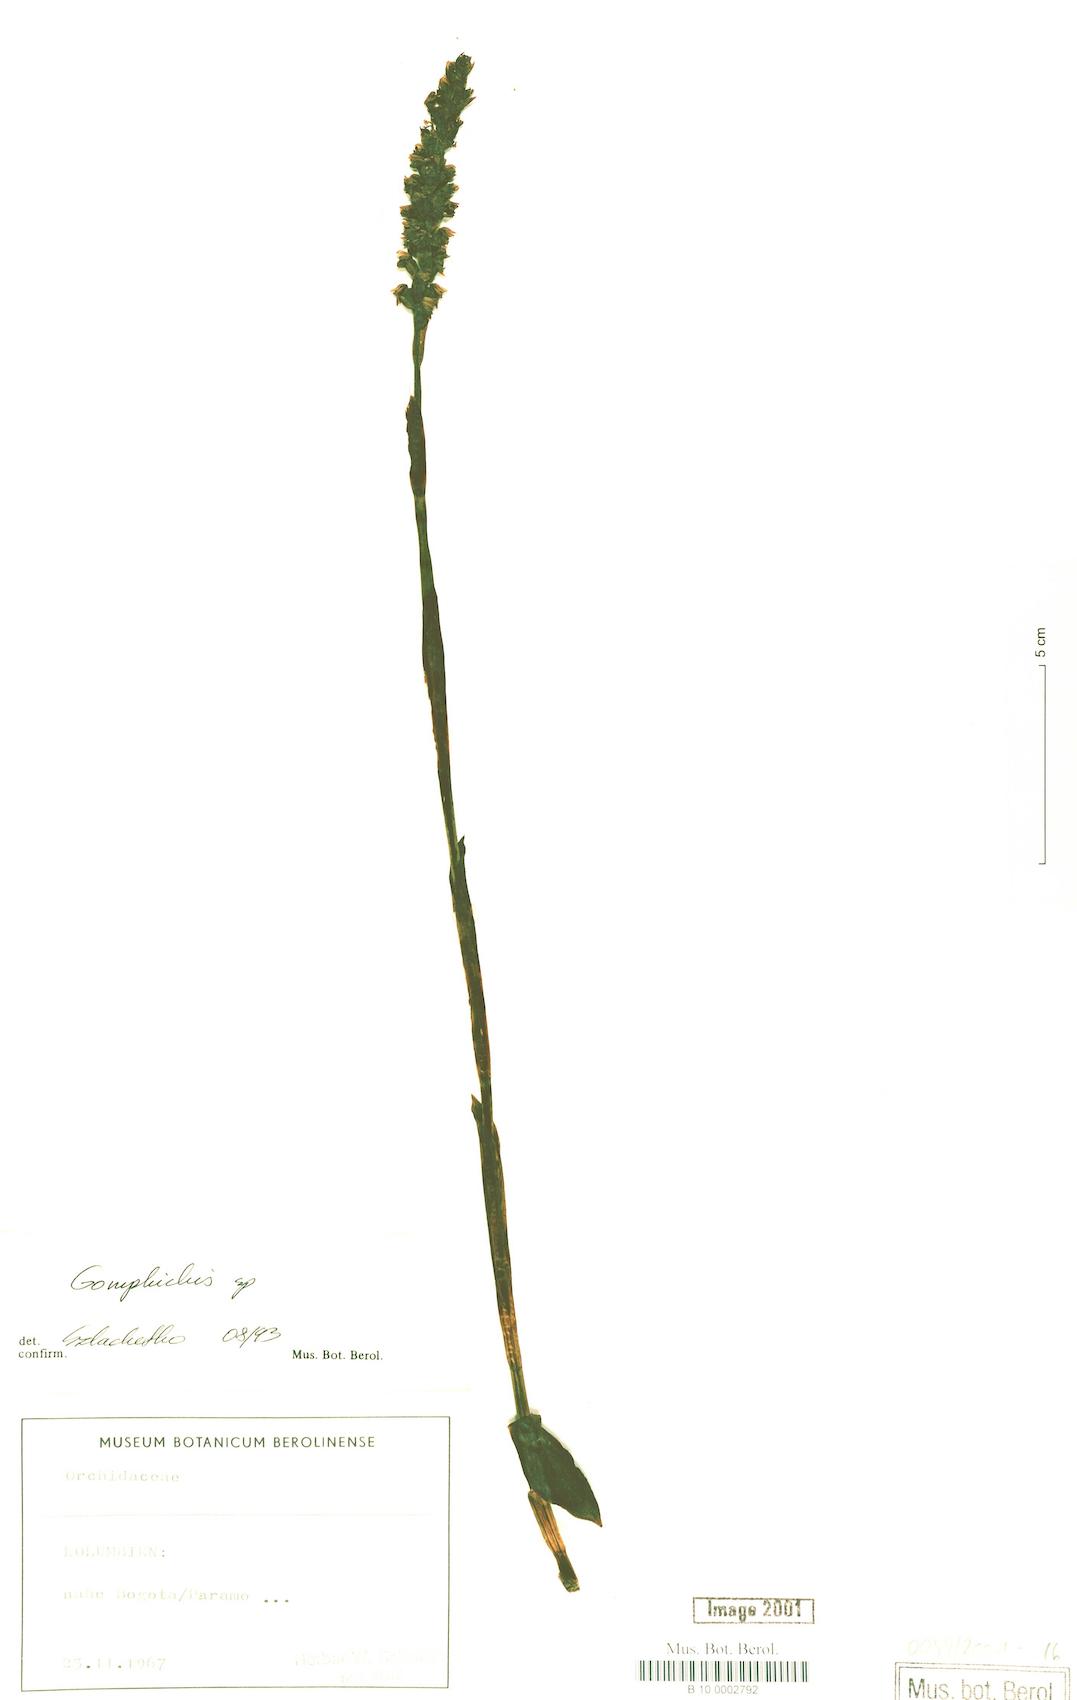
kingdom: Plantae
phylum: Tracheophyta
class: Liliopsida
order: Asparagales
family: Orchidaceae
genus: Gomphichis
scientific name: Gomphichis
